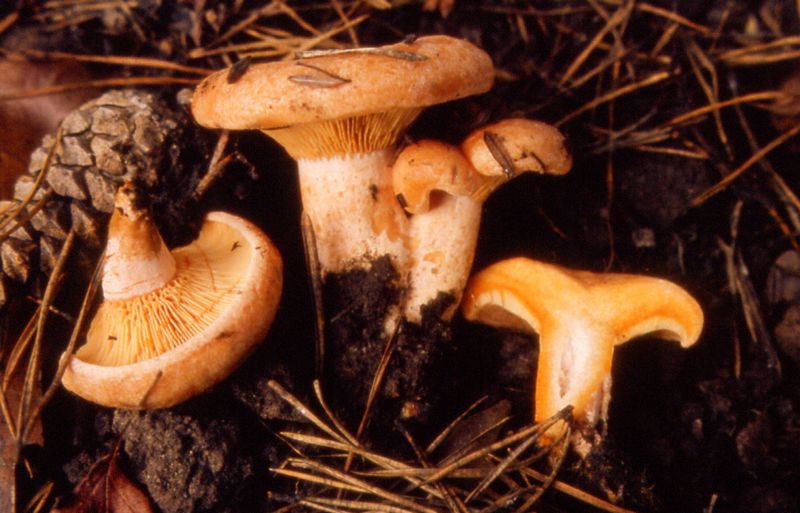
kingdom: Fungi
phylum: Basidiomycota
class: Agaricomycetes
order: Russulales
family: Russulaceae
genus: Lactarius
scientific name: Lactarius deliciosus
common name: velsmagende mælkehat
